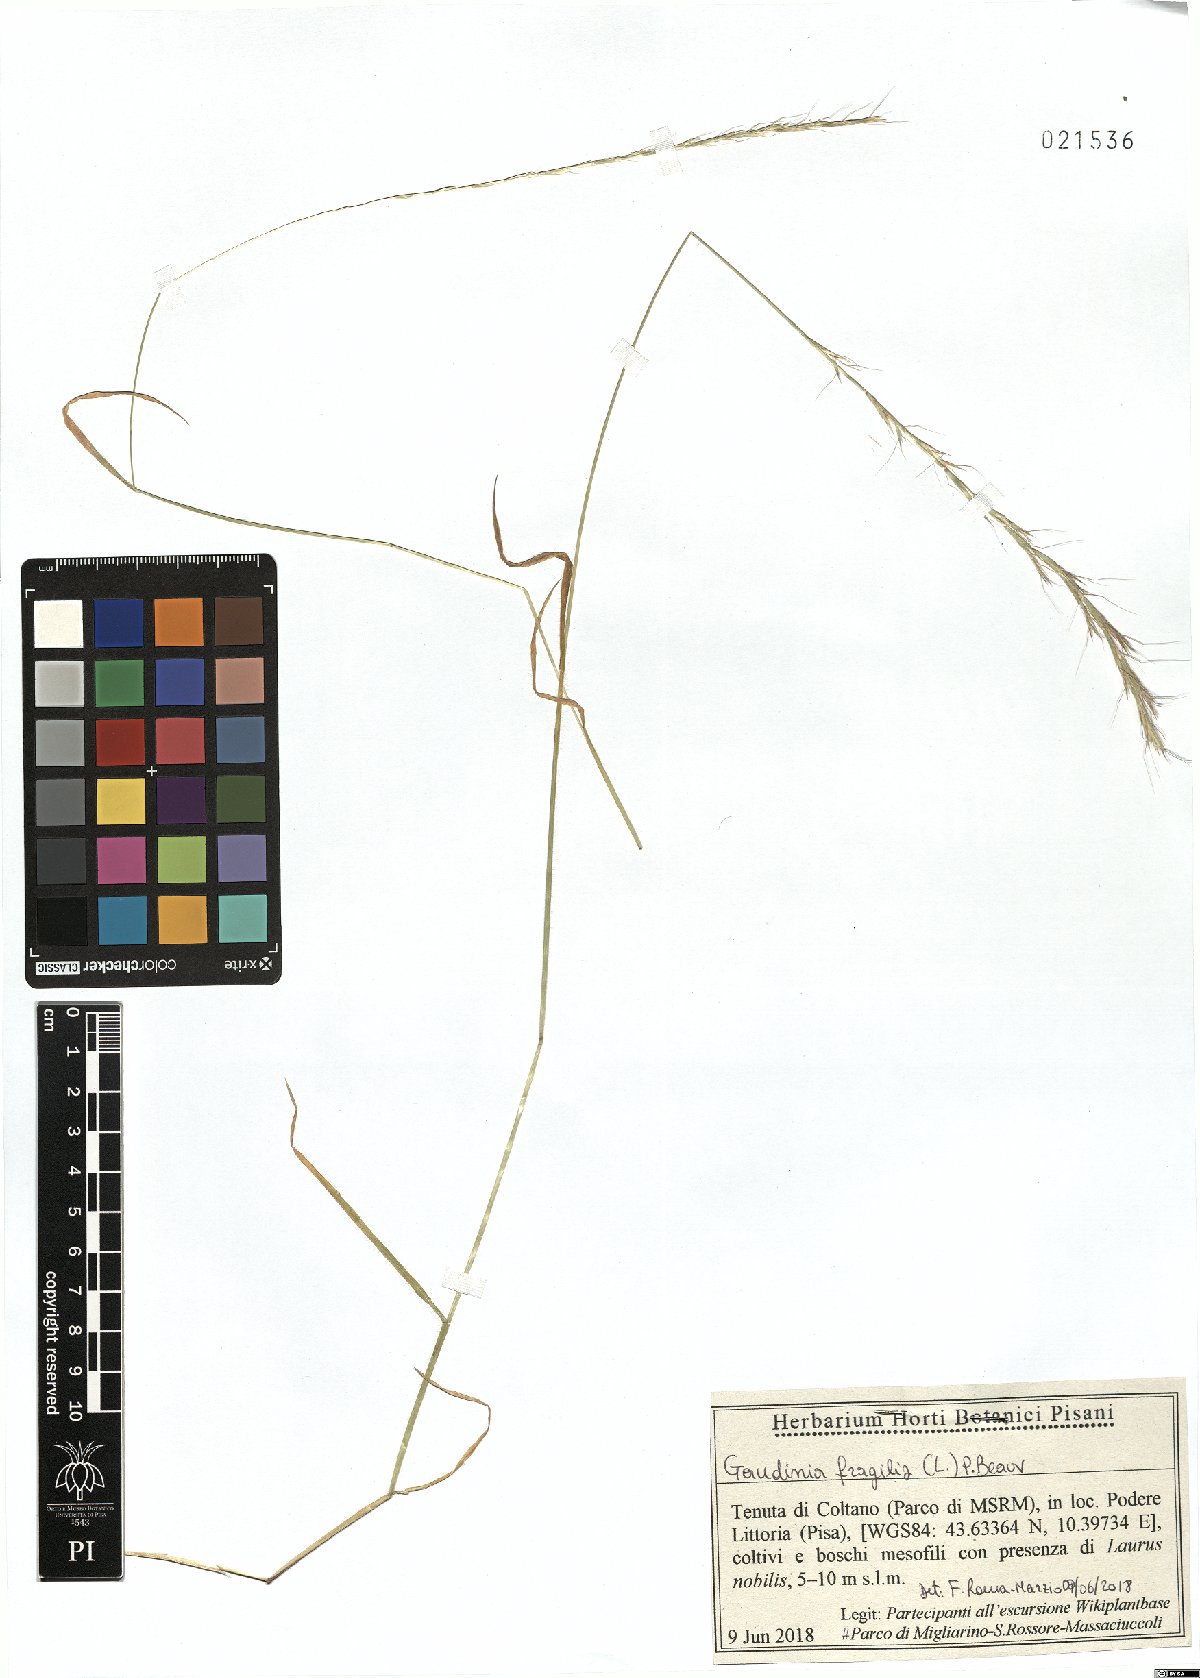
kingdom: Plantae
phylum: Tracheophyta
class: Liliopsida
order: Poales
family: Poaceae
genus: Gaudinia
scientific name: Gaudinia fragilis
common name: French oat-grass
